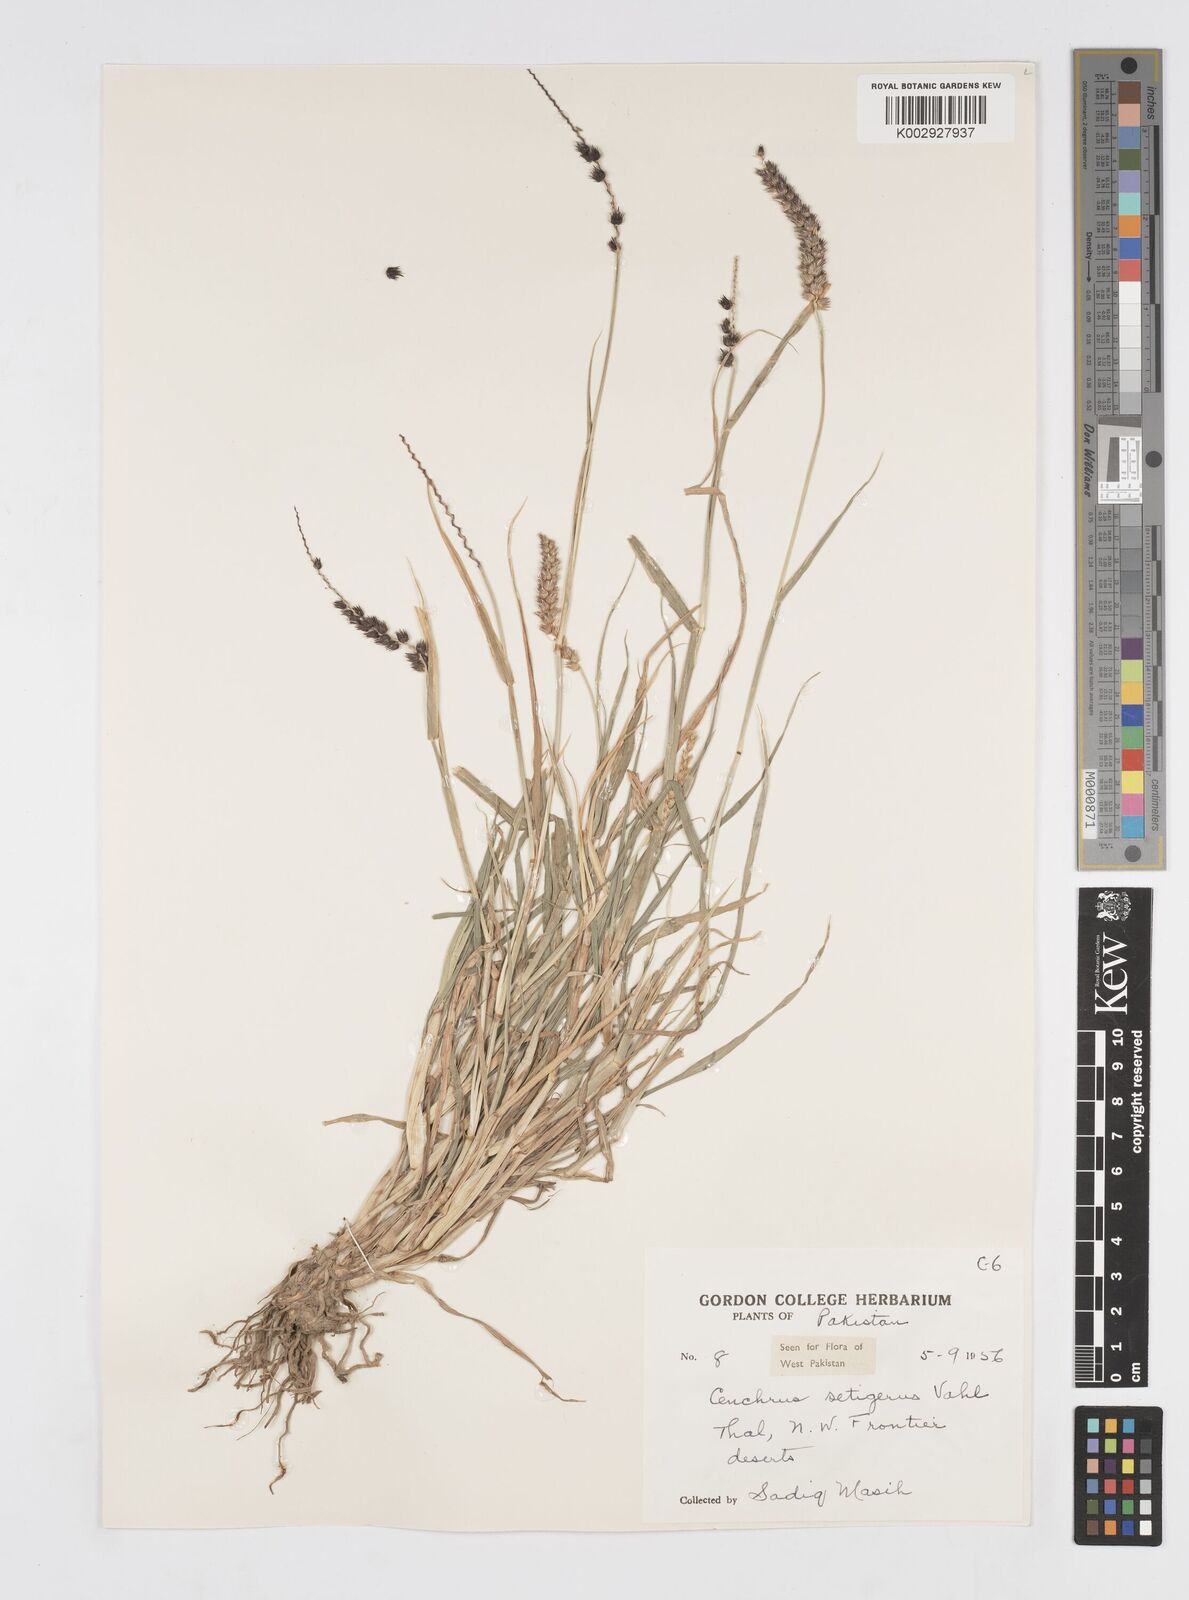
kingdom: Plantae
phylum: Tracheophyta
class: Liliopsida
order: Poales
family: Poaceae
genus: Cenchrus
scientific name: Cenchrus setigerus
